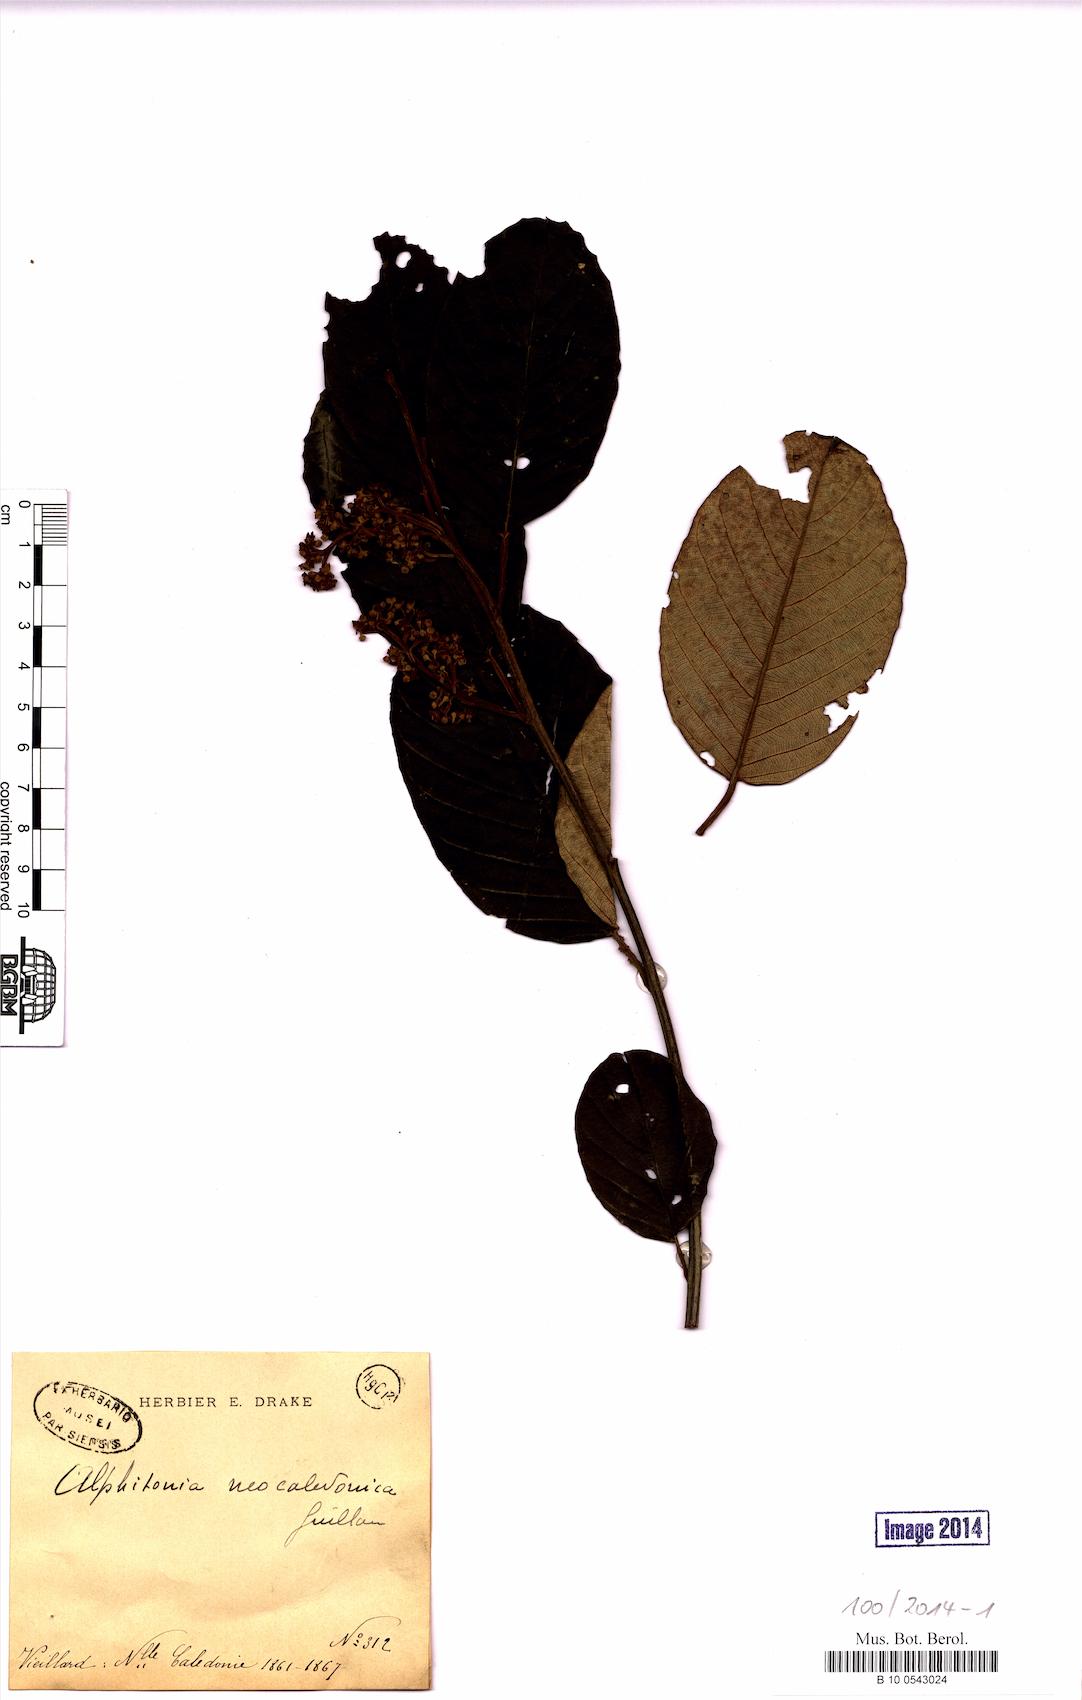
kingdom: Plantae
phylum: Tracheophyta
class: Magnoliopsida
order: Rosales
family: Rhamnaceae
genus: Alphitonia
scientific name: Alphitonia neocaledonica
